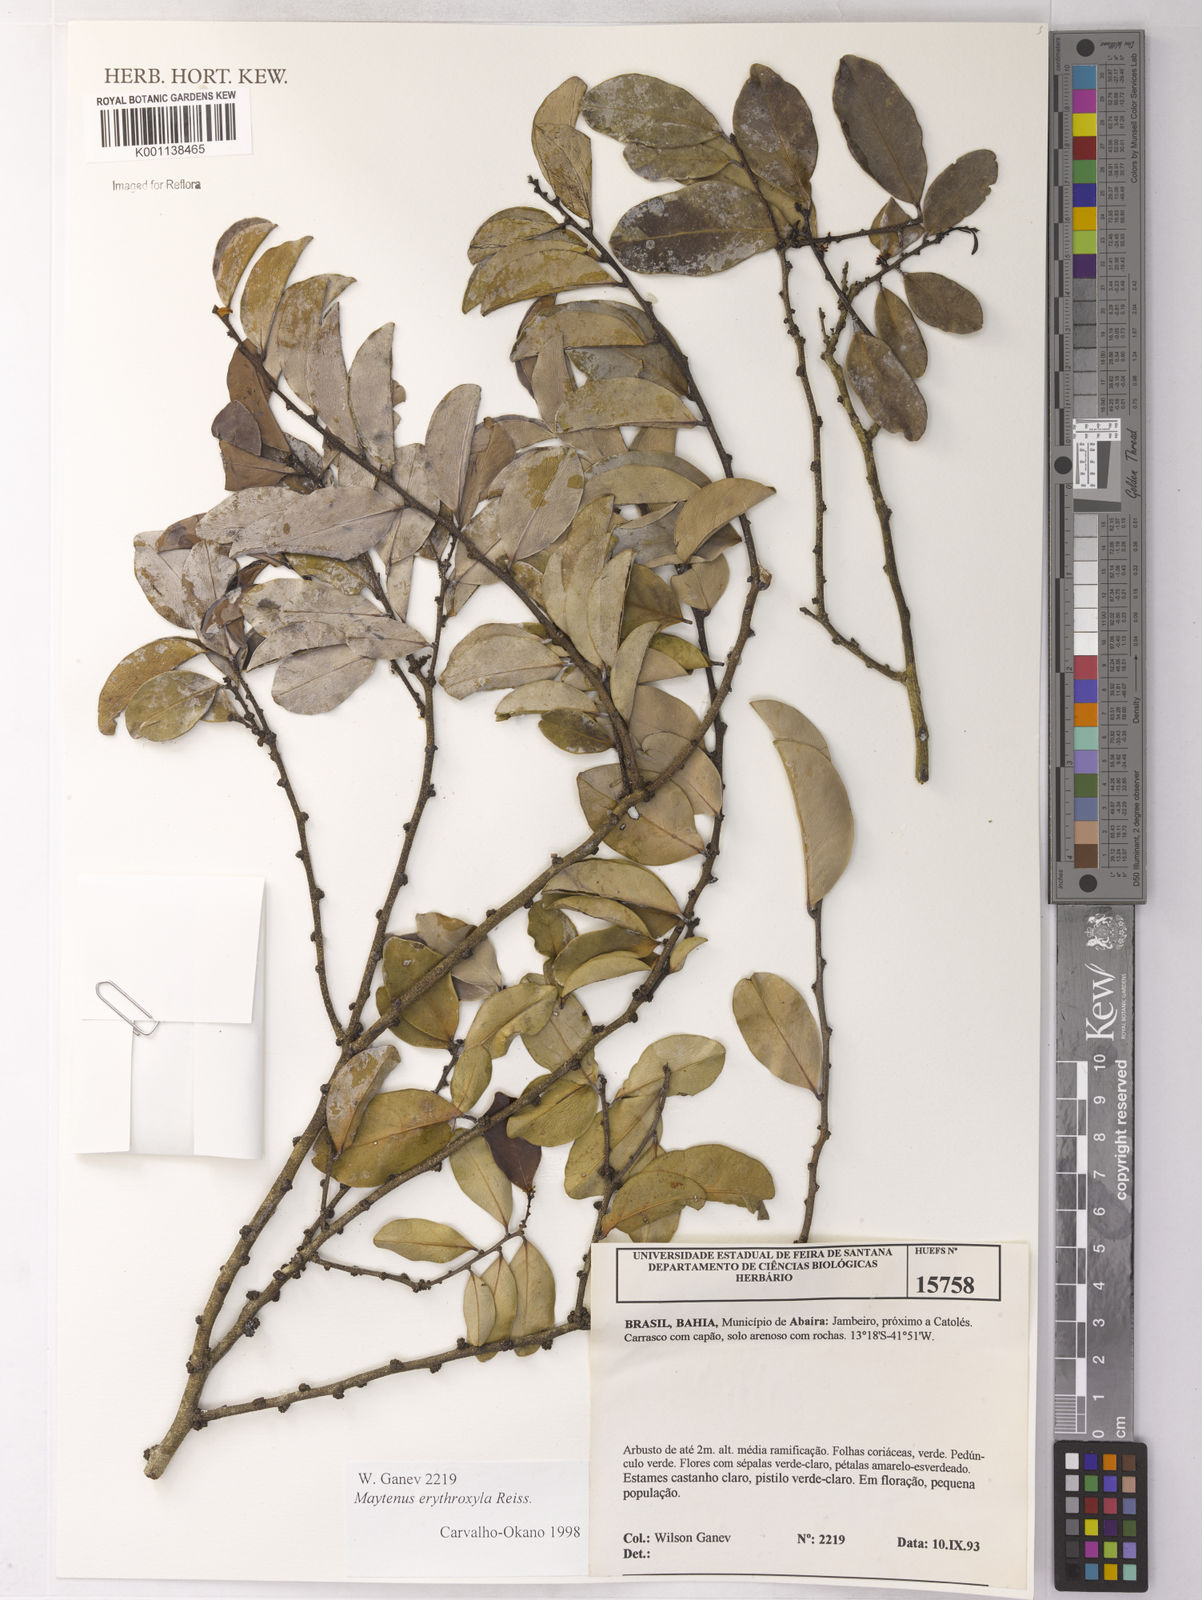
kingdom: Plantae
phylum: Tracheophyta
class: Magnoliopsida
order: Celastrales
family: Celastraceae
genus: Monteverdia
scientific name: Monteverdia erythroxylon
